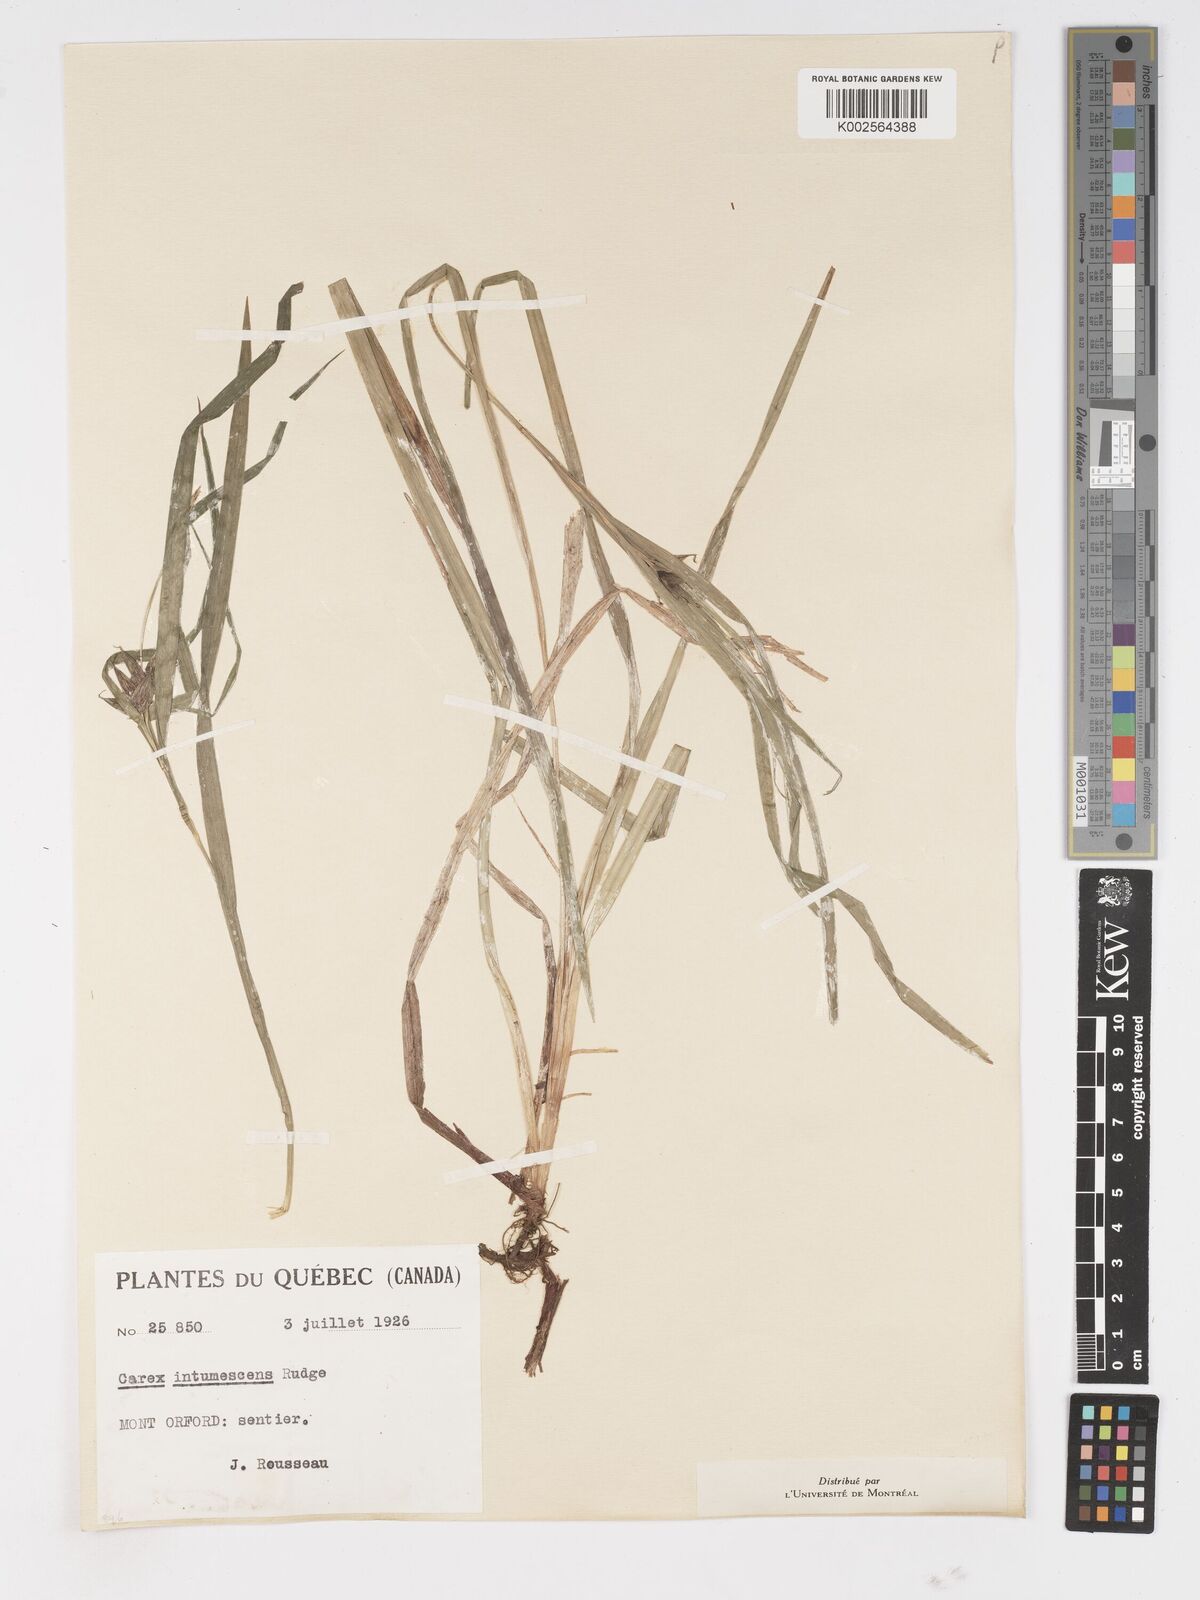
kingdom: Plantae
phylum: Tracheophyta
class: Liliopsida
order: Poales
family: Cyperaceae
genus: Carex
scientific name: Carex intumescens
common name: Greater bladder sedge
